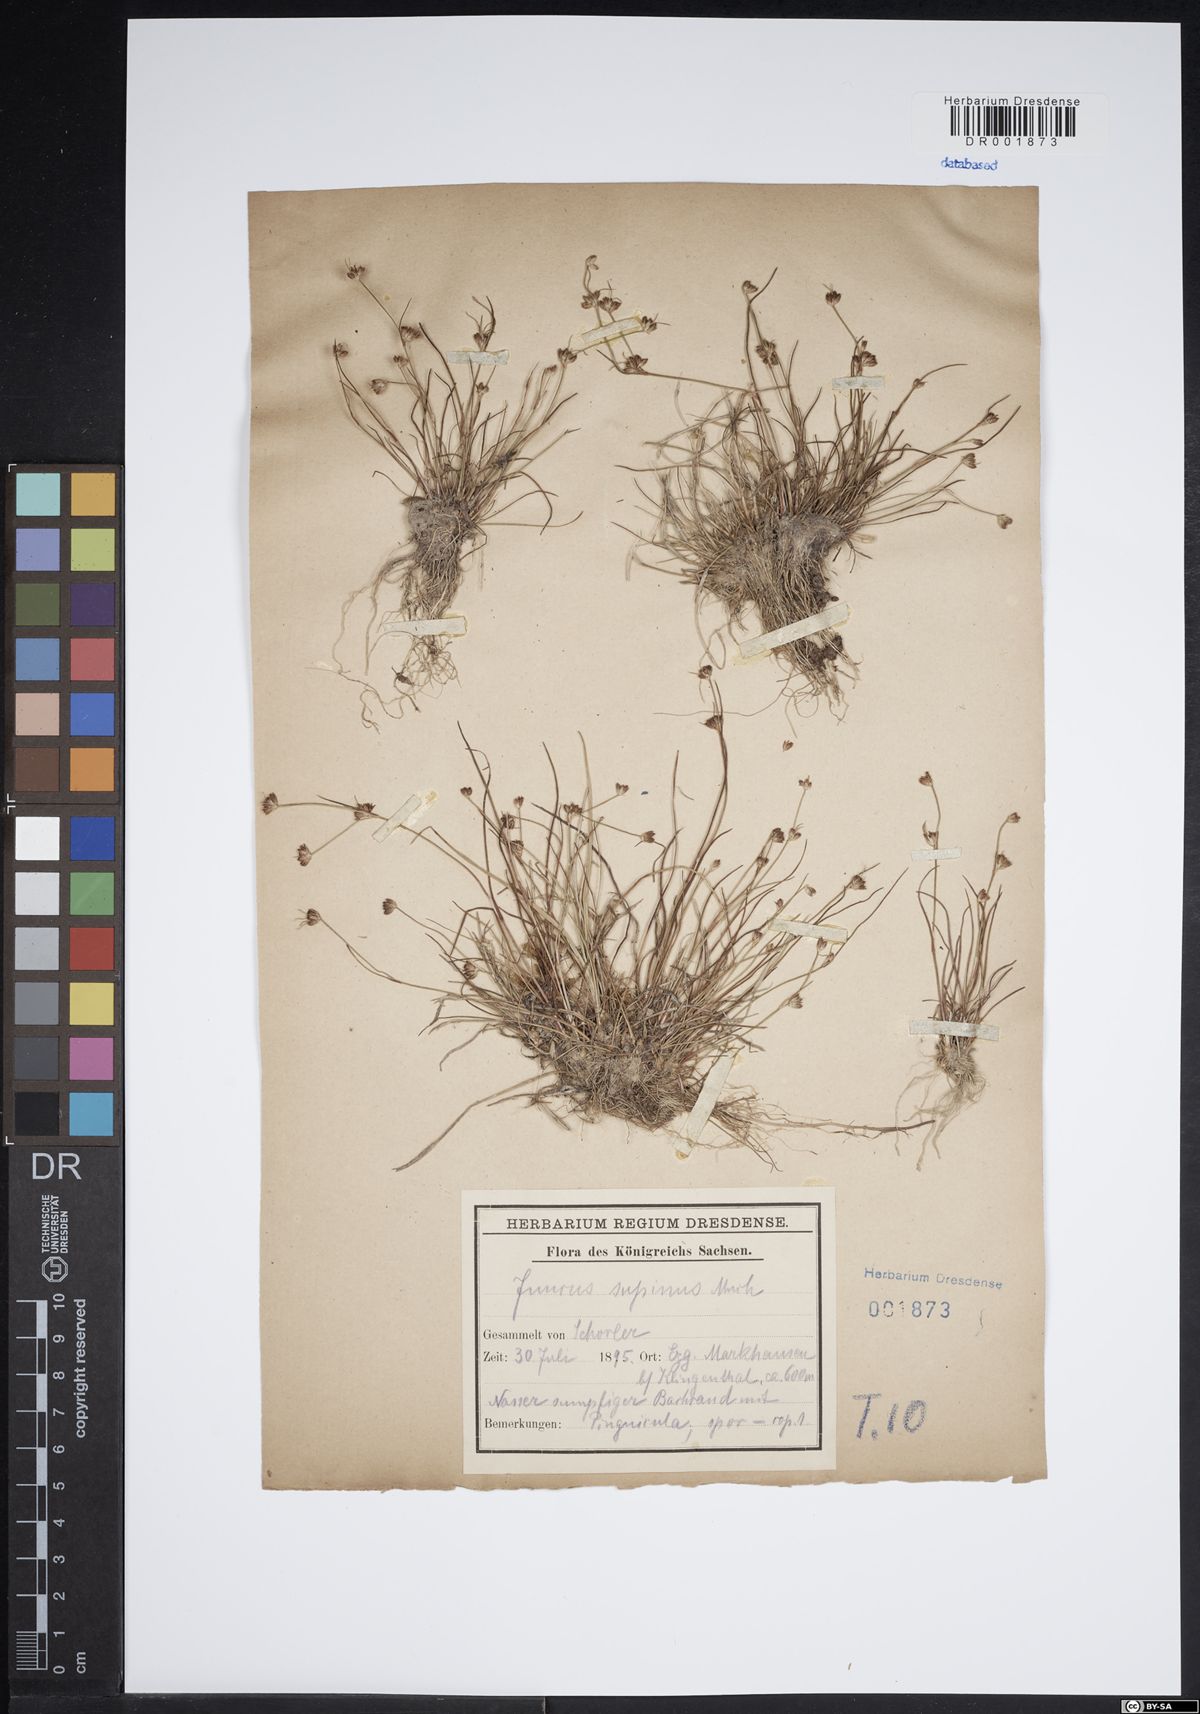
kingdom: Plantae
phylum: Tracheophyta
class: Liliopsida
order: Poales
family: Juncaceae
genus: Juncus
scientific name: Juncus bulbosus
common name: Bulbous rush
